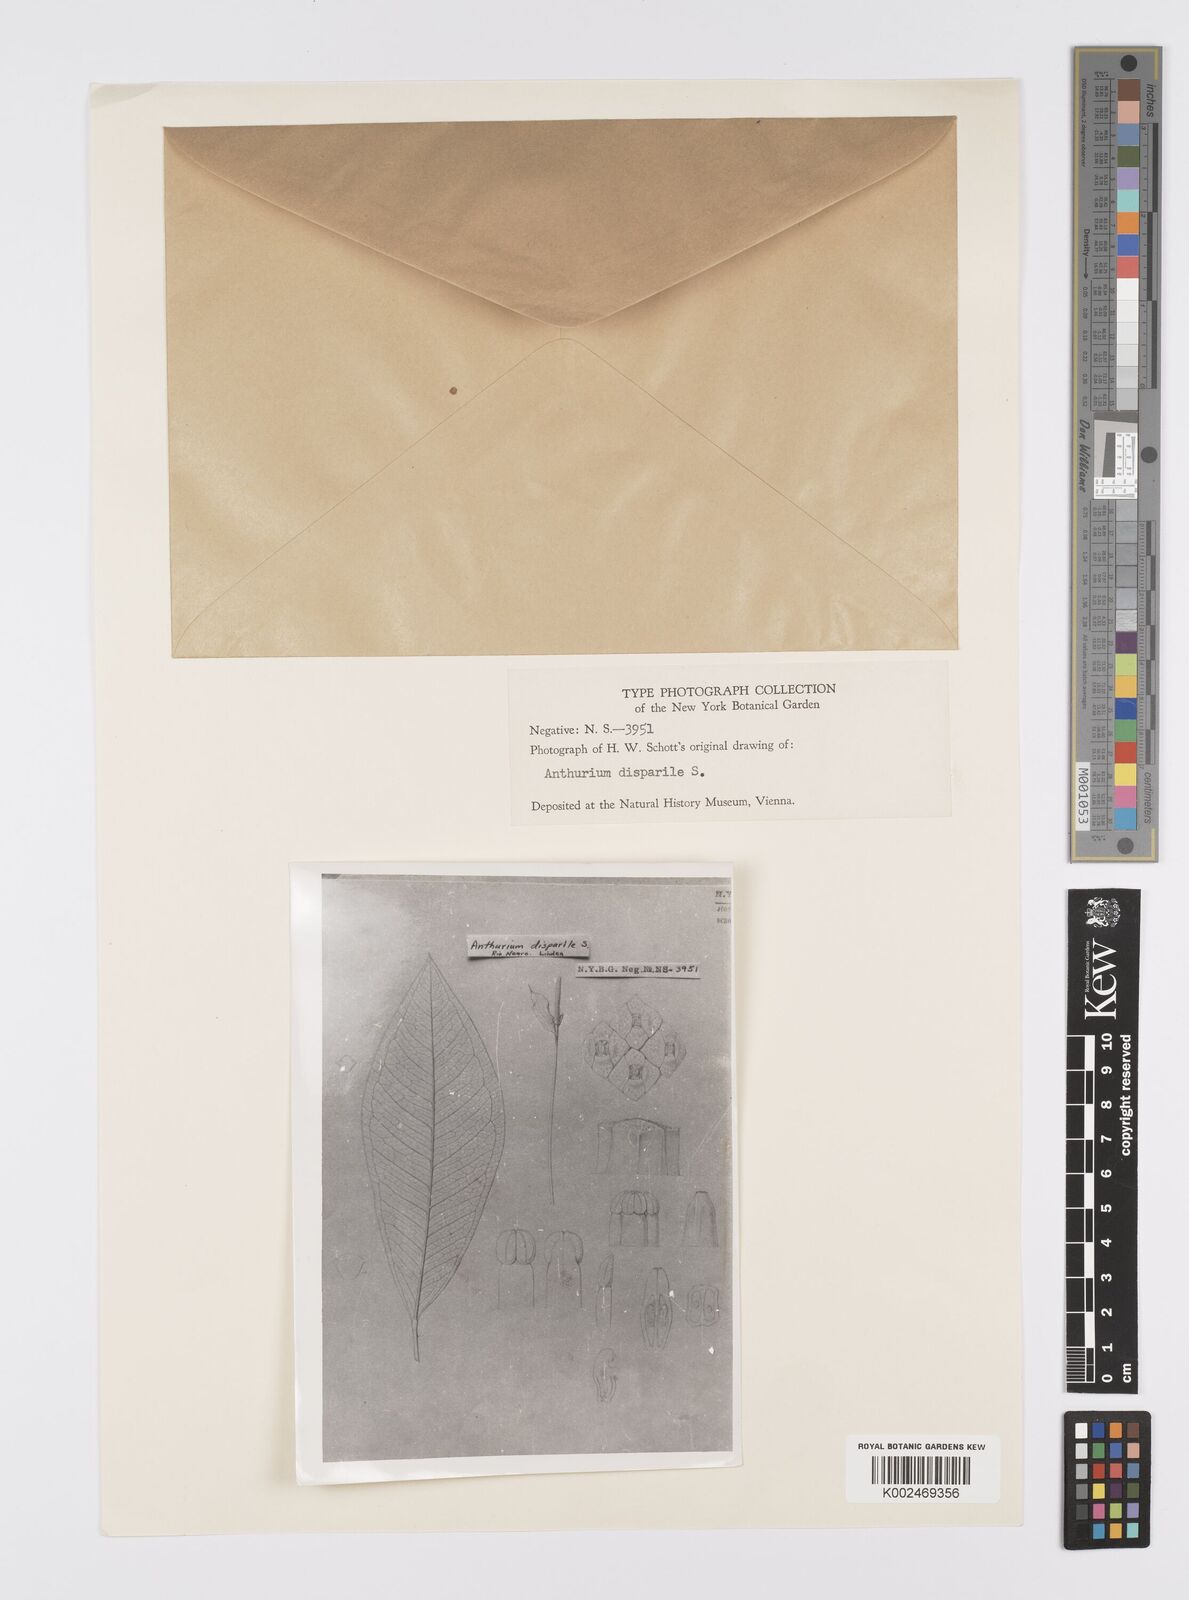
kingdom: Plantae
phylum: Tracheophyta
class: Liliopsida
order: Alismatales
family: Araceae
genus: Anthurium
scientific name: Anthurium
